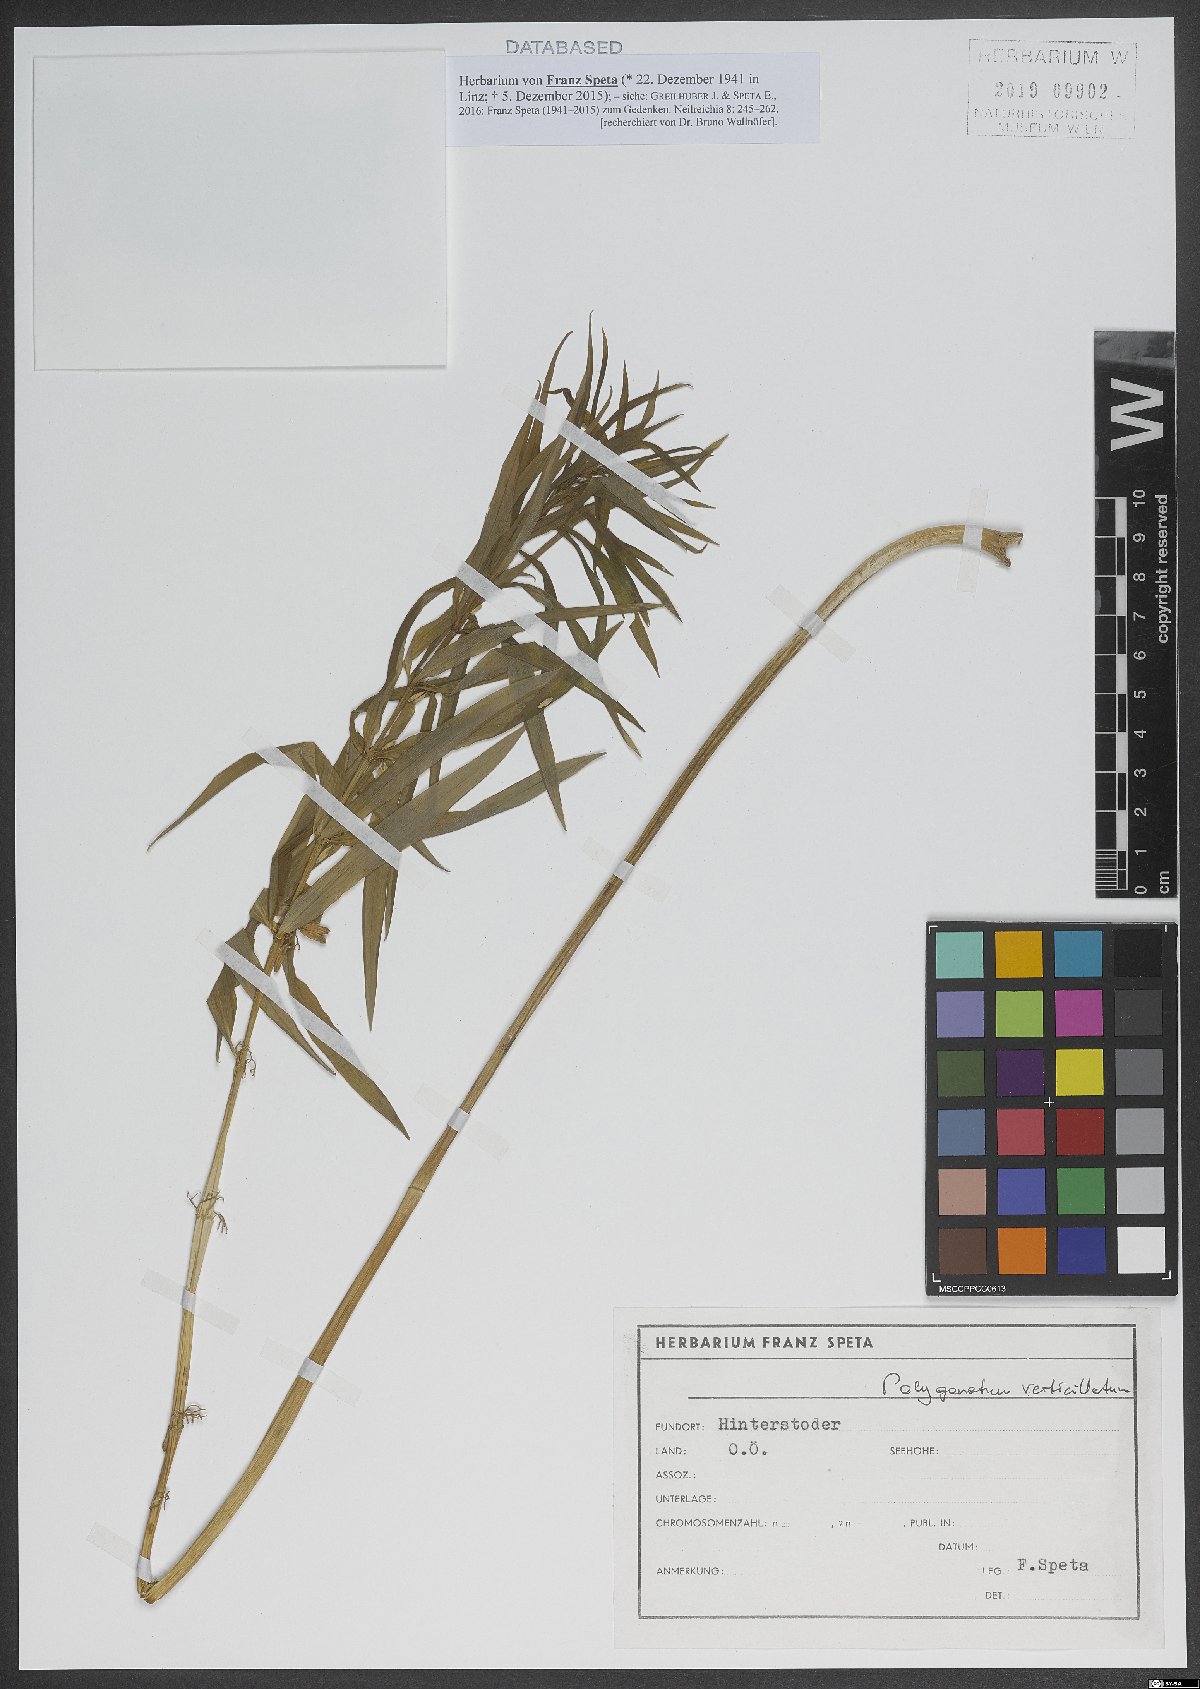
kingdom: Plantae
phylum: Tracheophyta
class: Liliopsida
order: Asparagales
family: Asparagaceae
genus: Polygonatum
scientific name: Polygonatum verticillatum
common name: Whorled solomon's-seal
